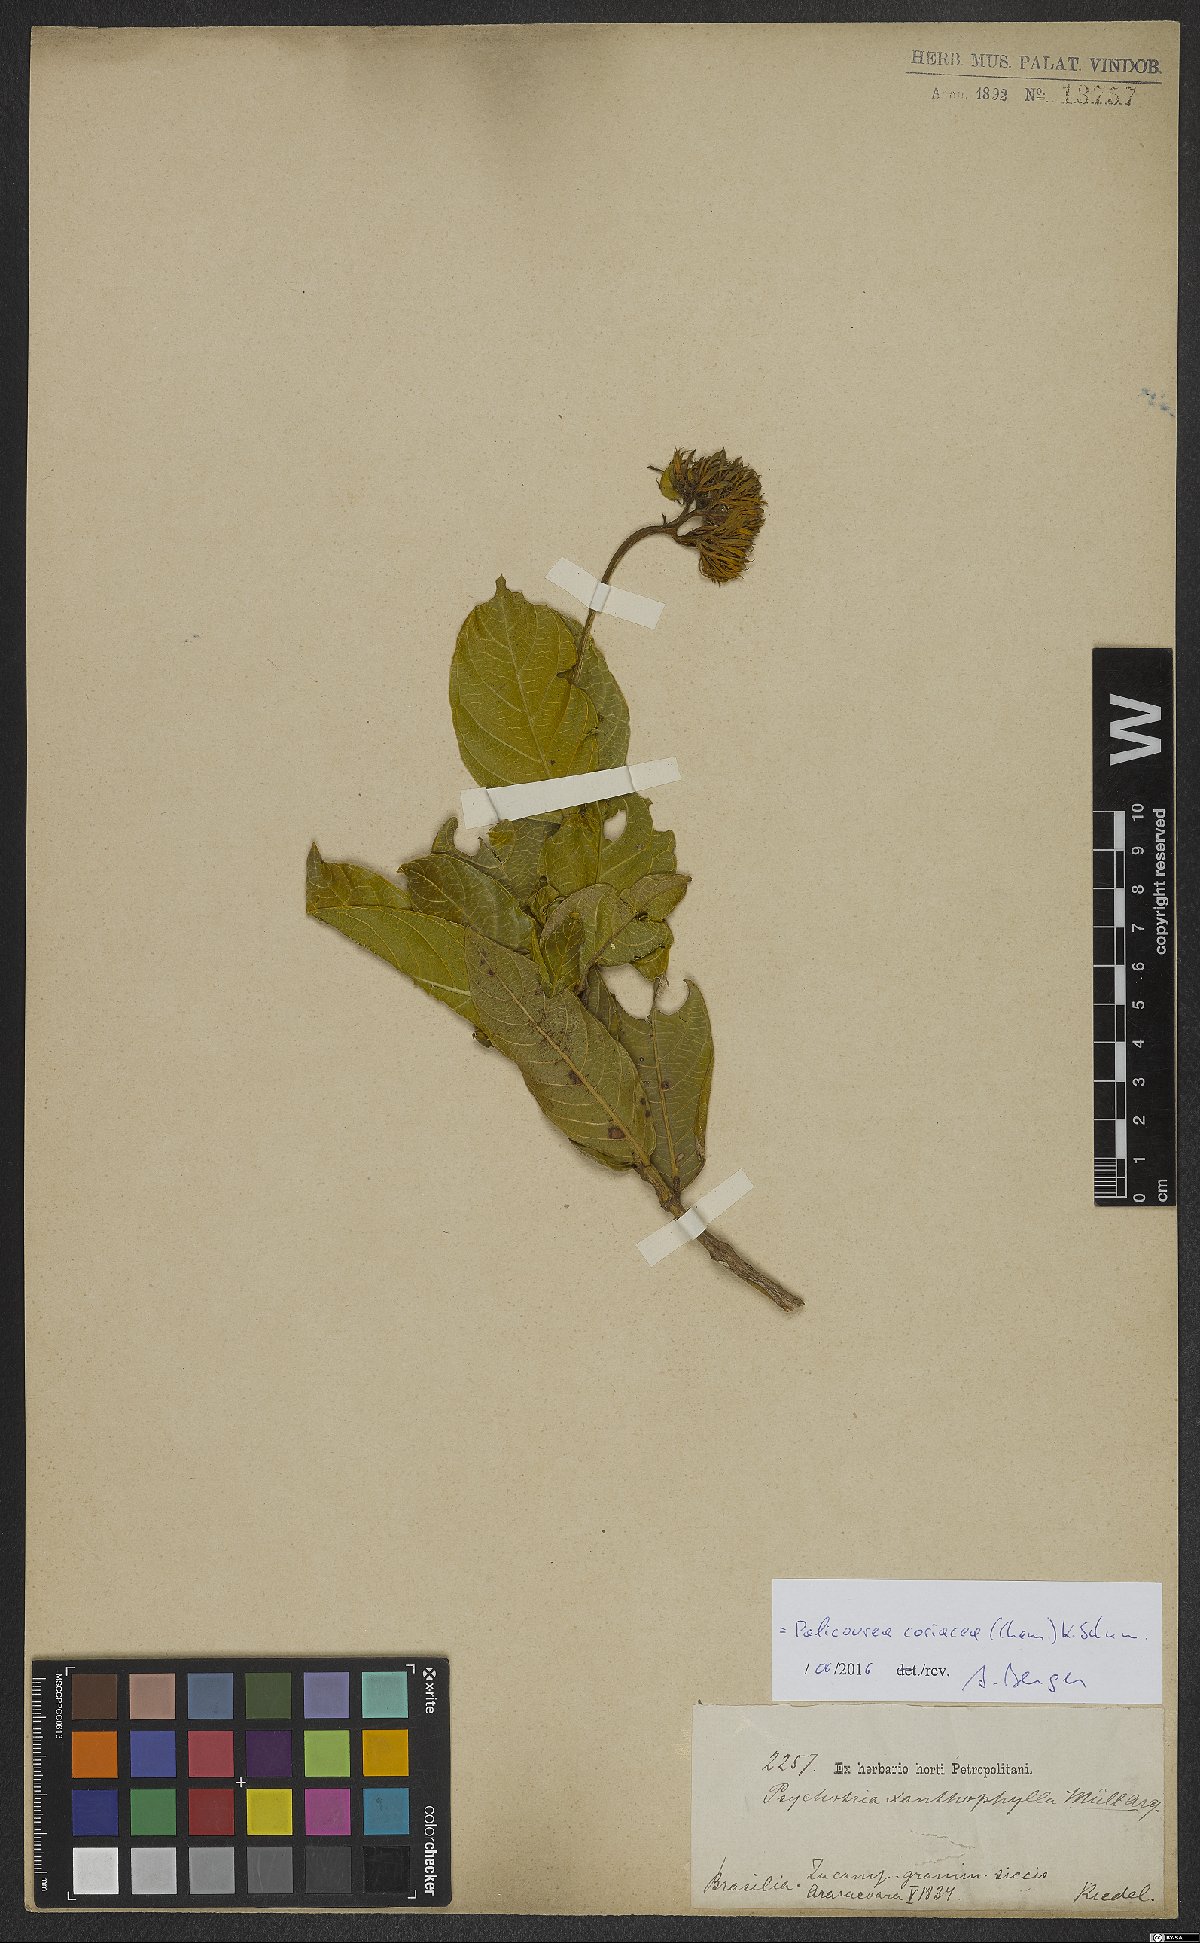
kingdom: Plantae
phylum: Tracheophyta
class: Magnoliopsida
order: Gentianales
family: Rubiaceae
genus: Palicourea
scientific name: Palicourea coriacea
